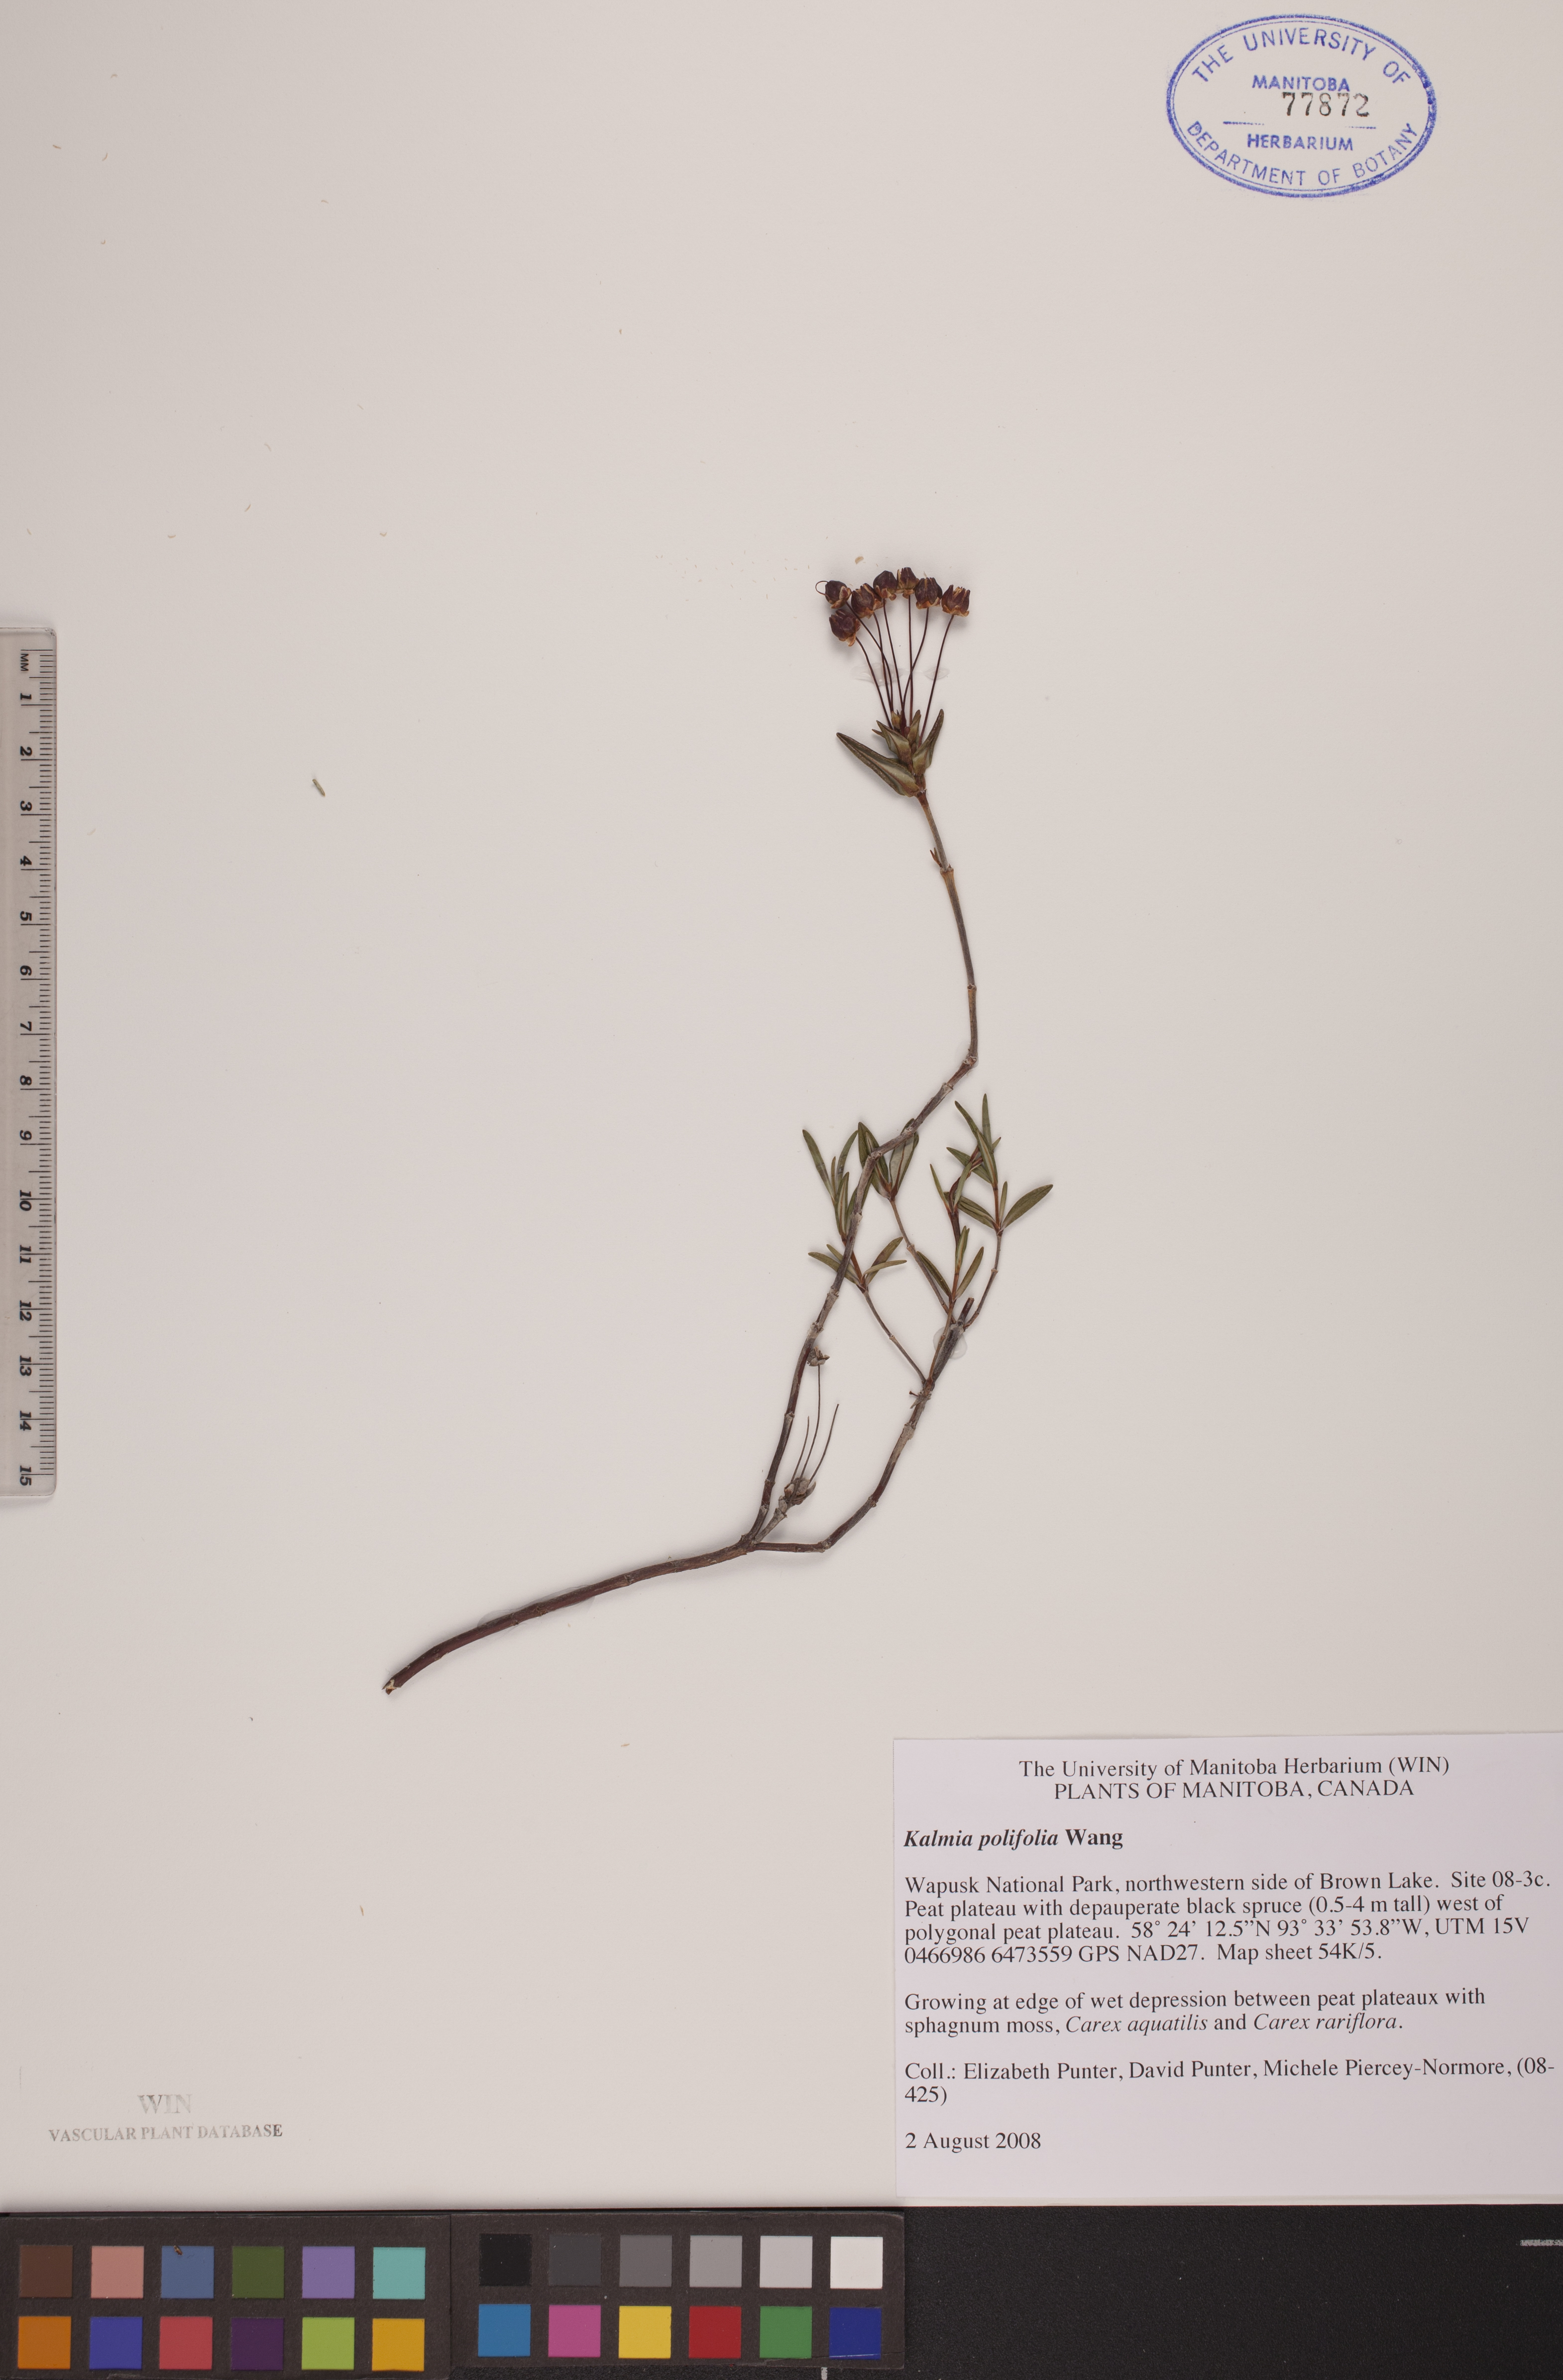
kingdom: Plantae
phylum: Tracheophyta
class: Magnoliopsida
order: Ericales
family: Ericaceae
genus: Kalmia
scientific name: Kalmia polifolia
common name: Bog-laurel
